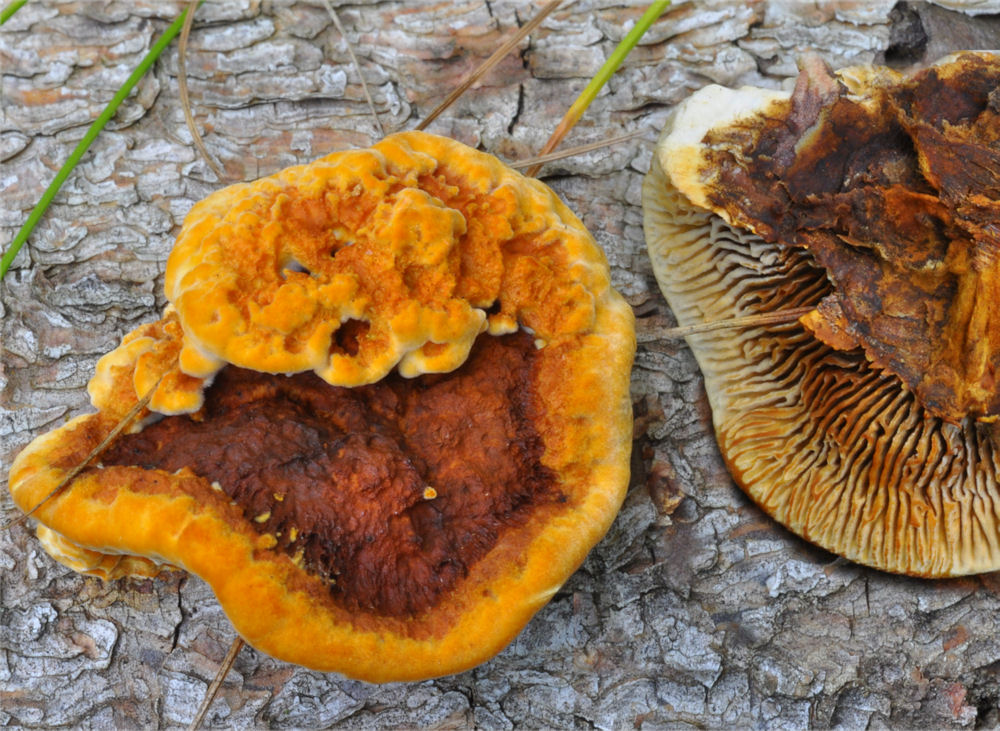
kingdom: Fungi
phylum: Basidiomycota
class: Agaricomycetes
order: Gloeophyllales
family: Gloeophyllaceae
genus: Gloeophyllum
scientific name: Gloeophyllum sepiarium
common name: fyrre-korkhat
